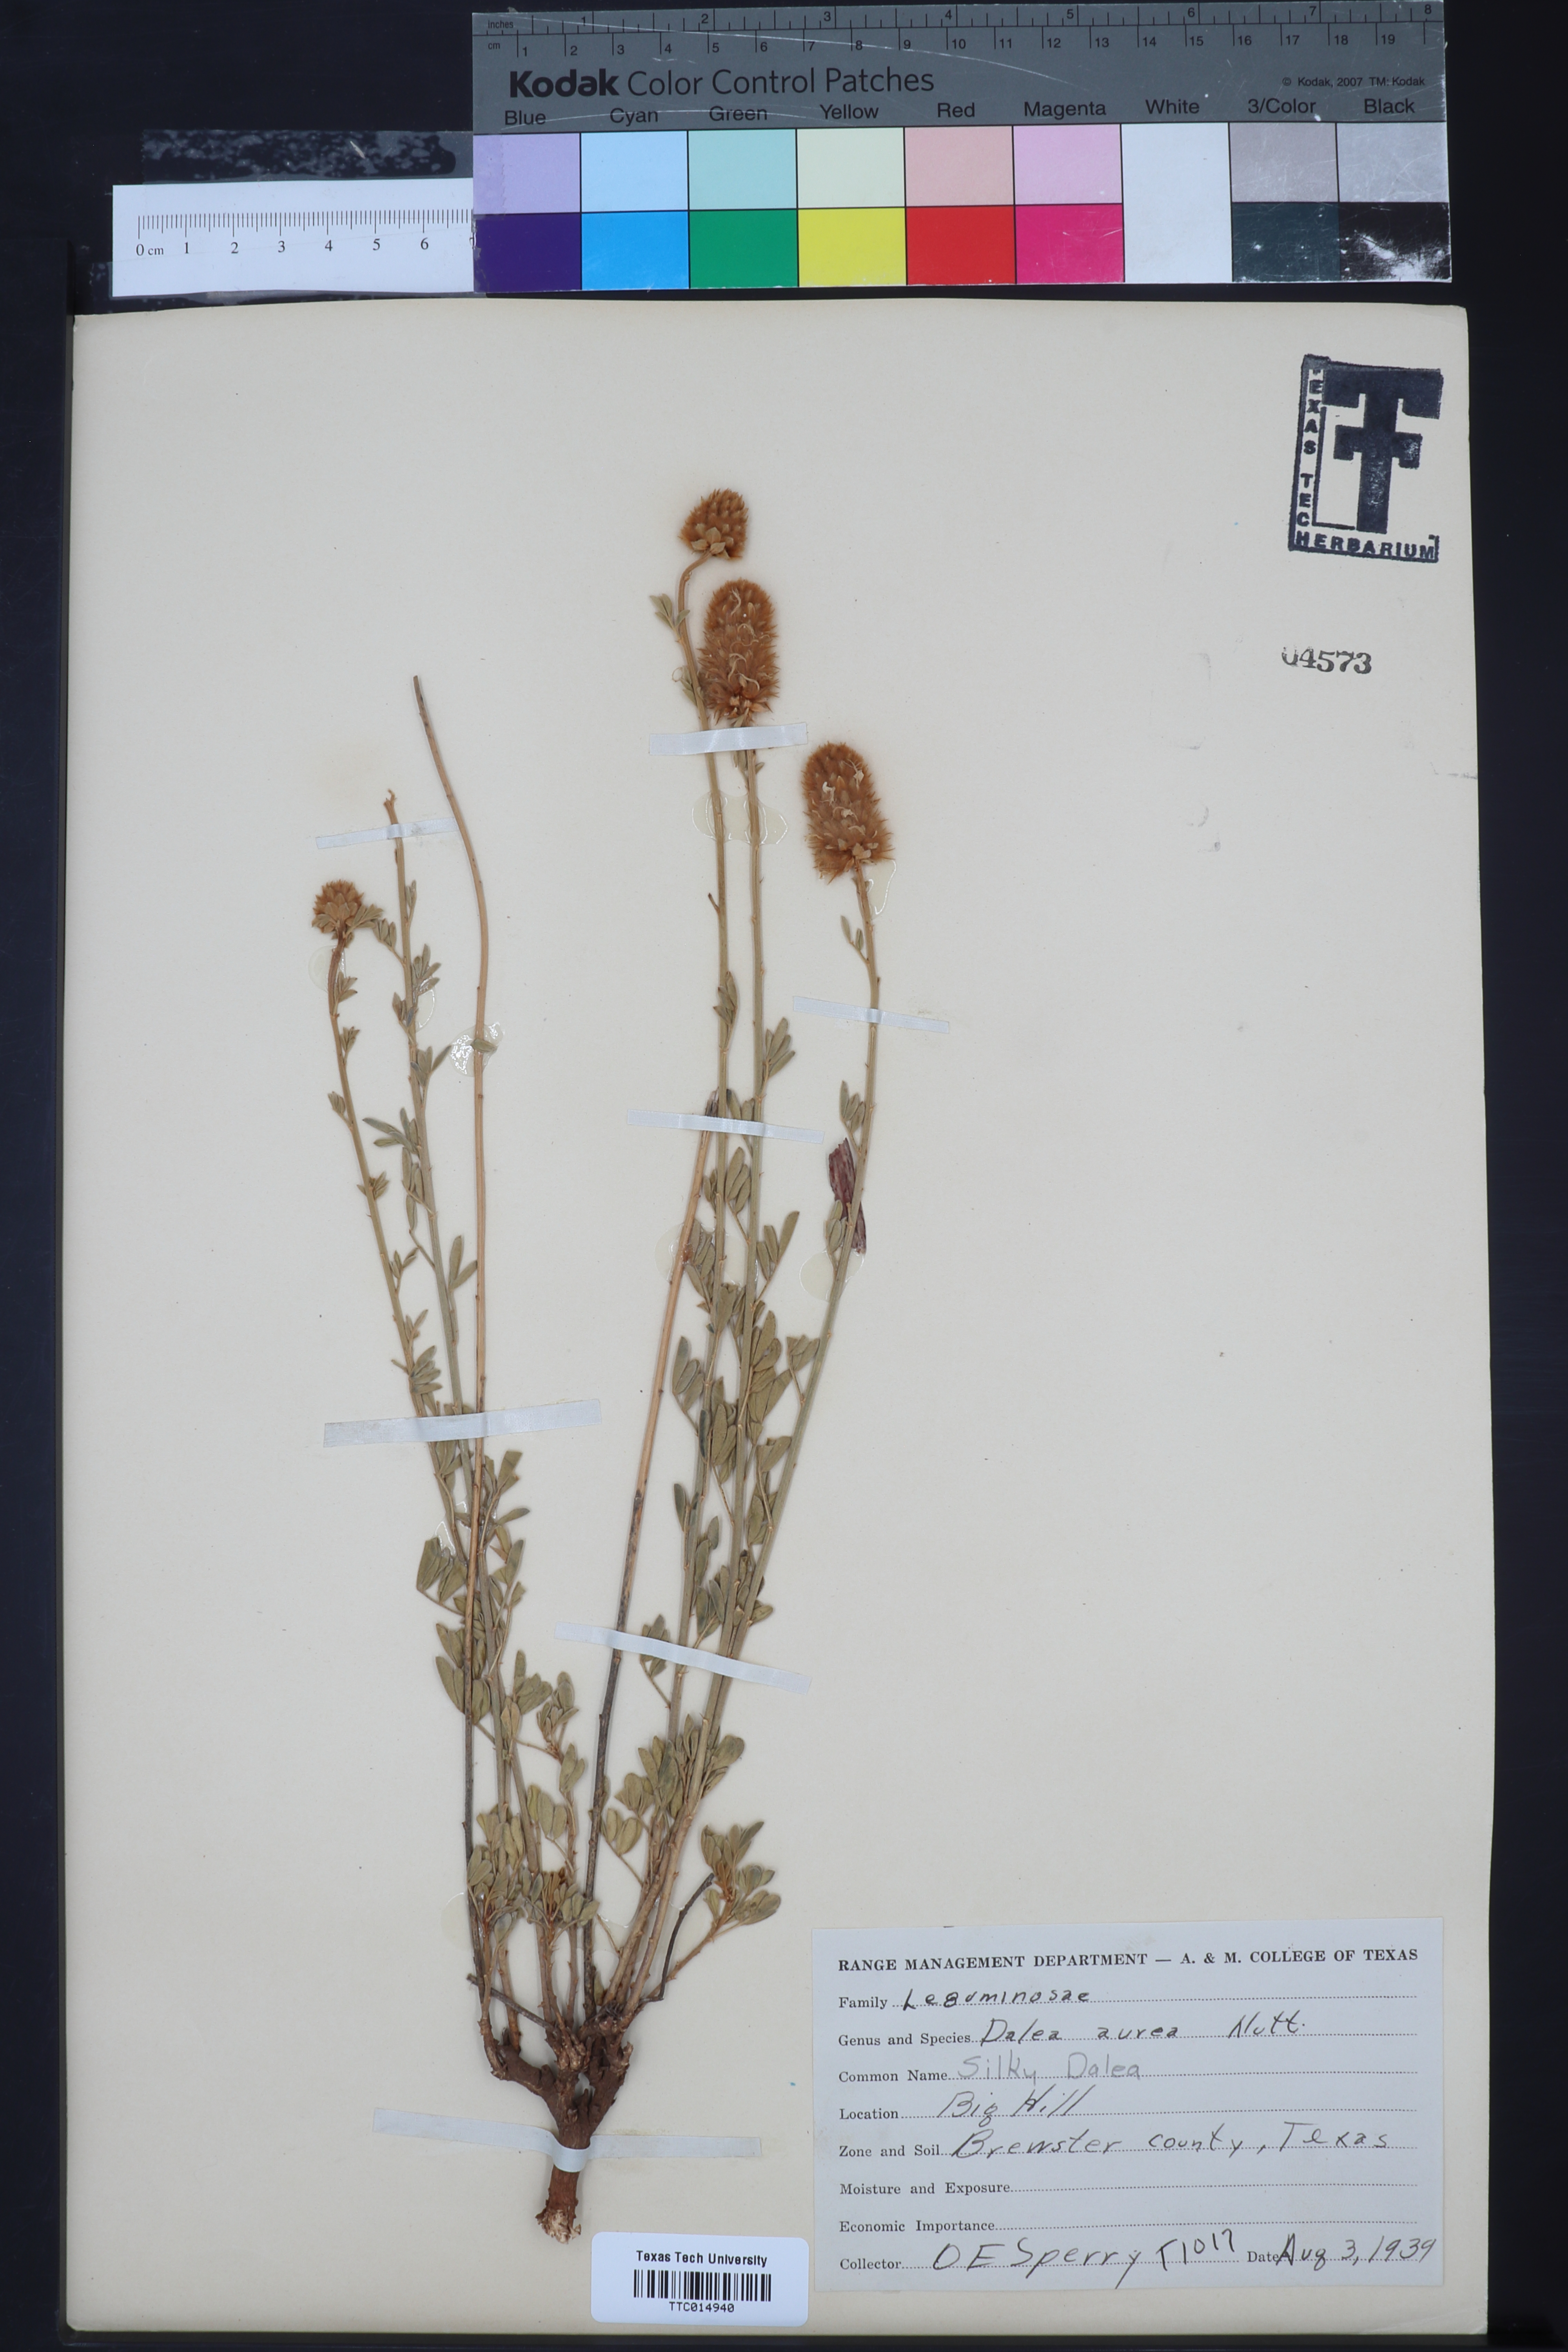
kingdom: Plantae
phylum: Tracheophyta
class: Magnoliopsida
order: Fabales
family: Fabaceae
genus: Dalea
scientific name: Dalea aurea
